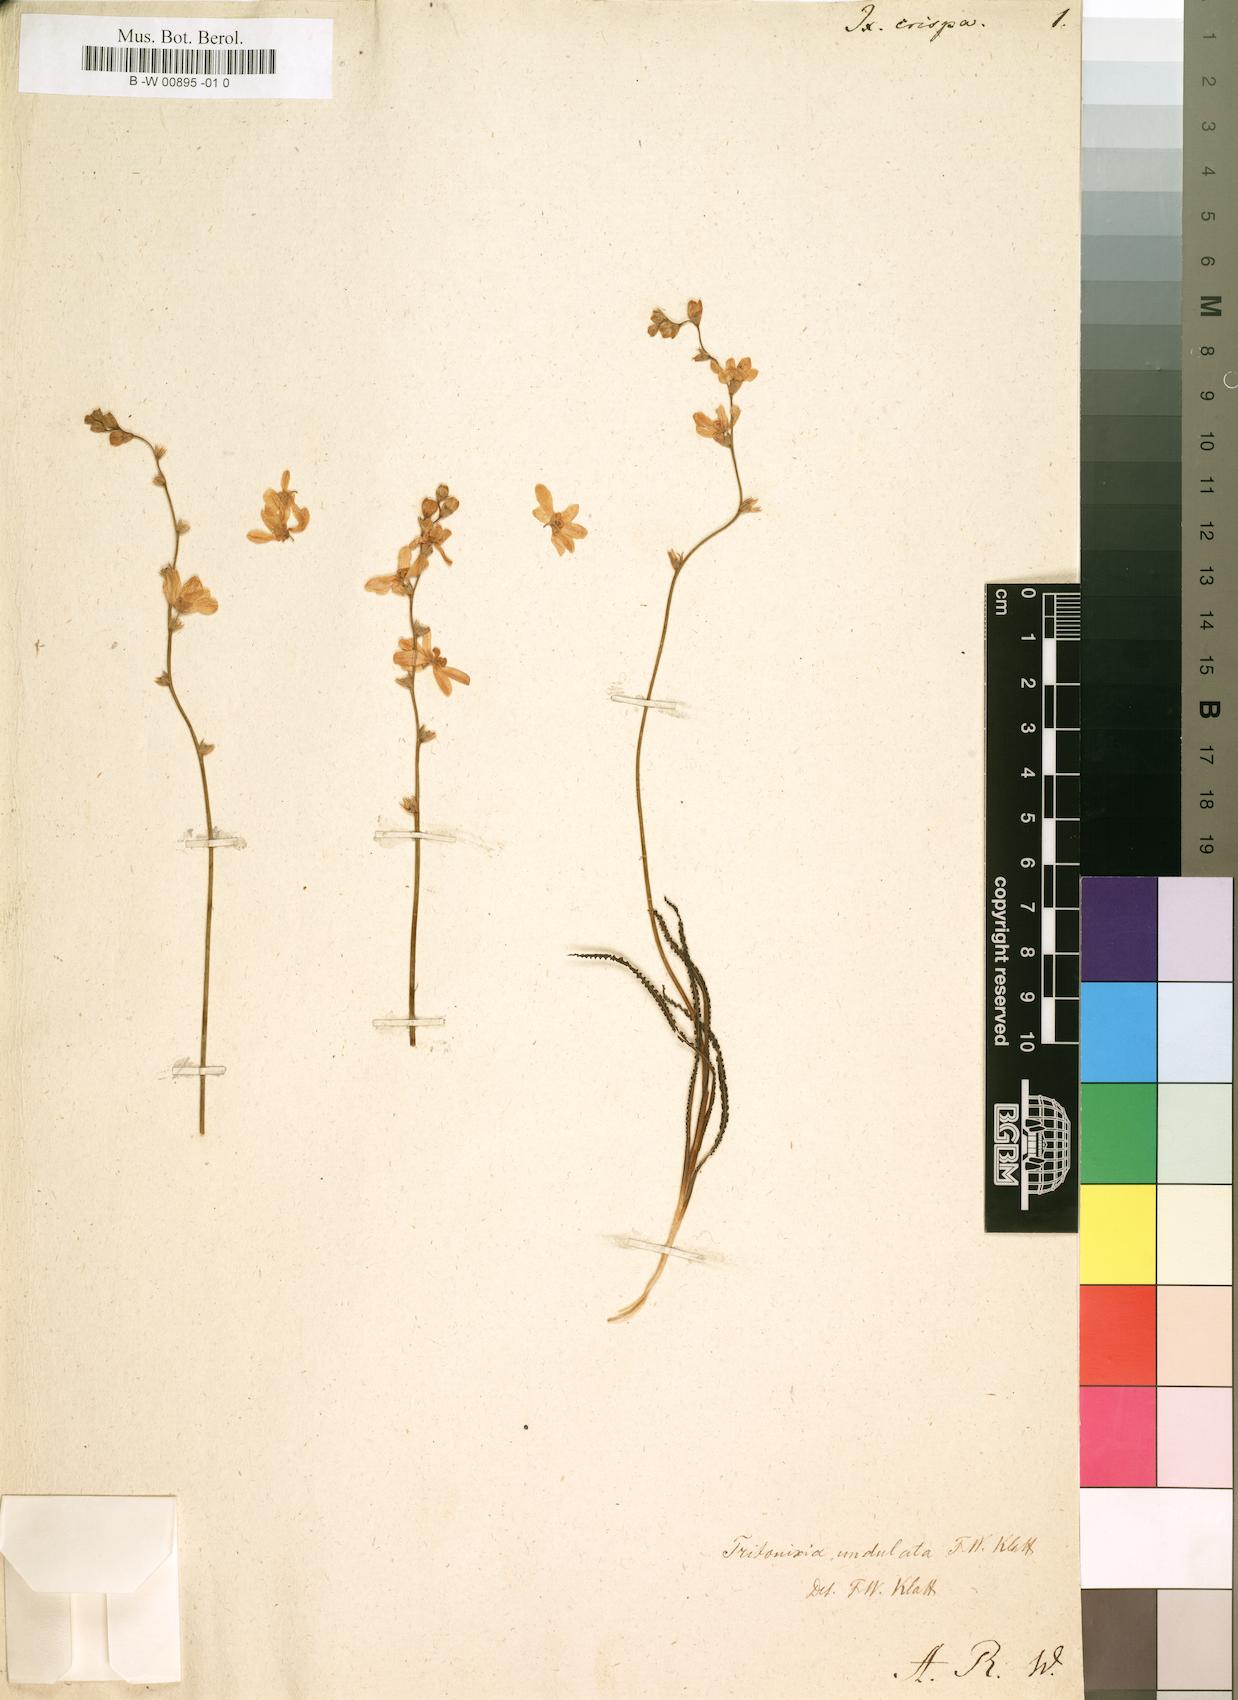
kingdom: Plantae
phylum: Tracheophyta
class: Liliopsida
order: Asparagales
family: Iridaceae
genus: Tritonia
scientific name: Tritonia undulata
